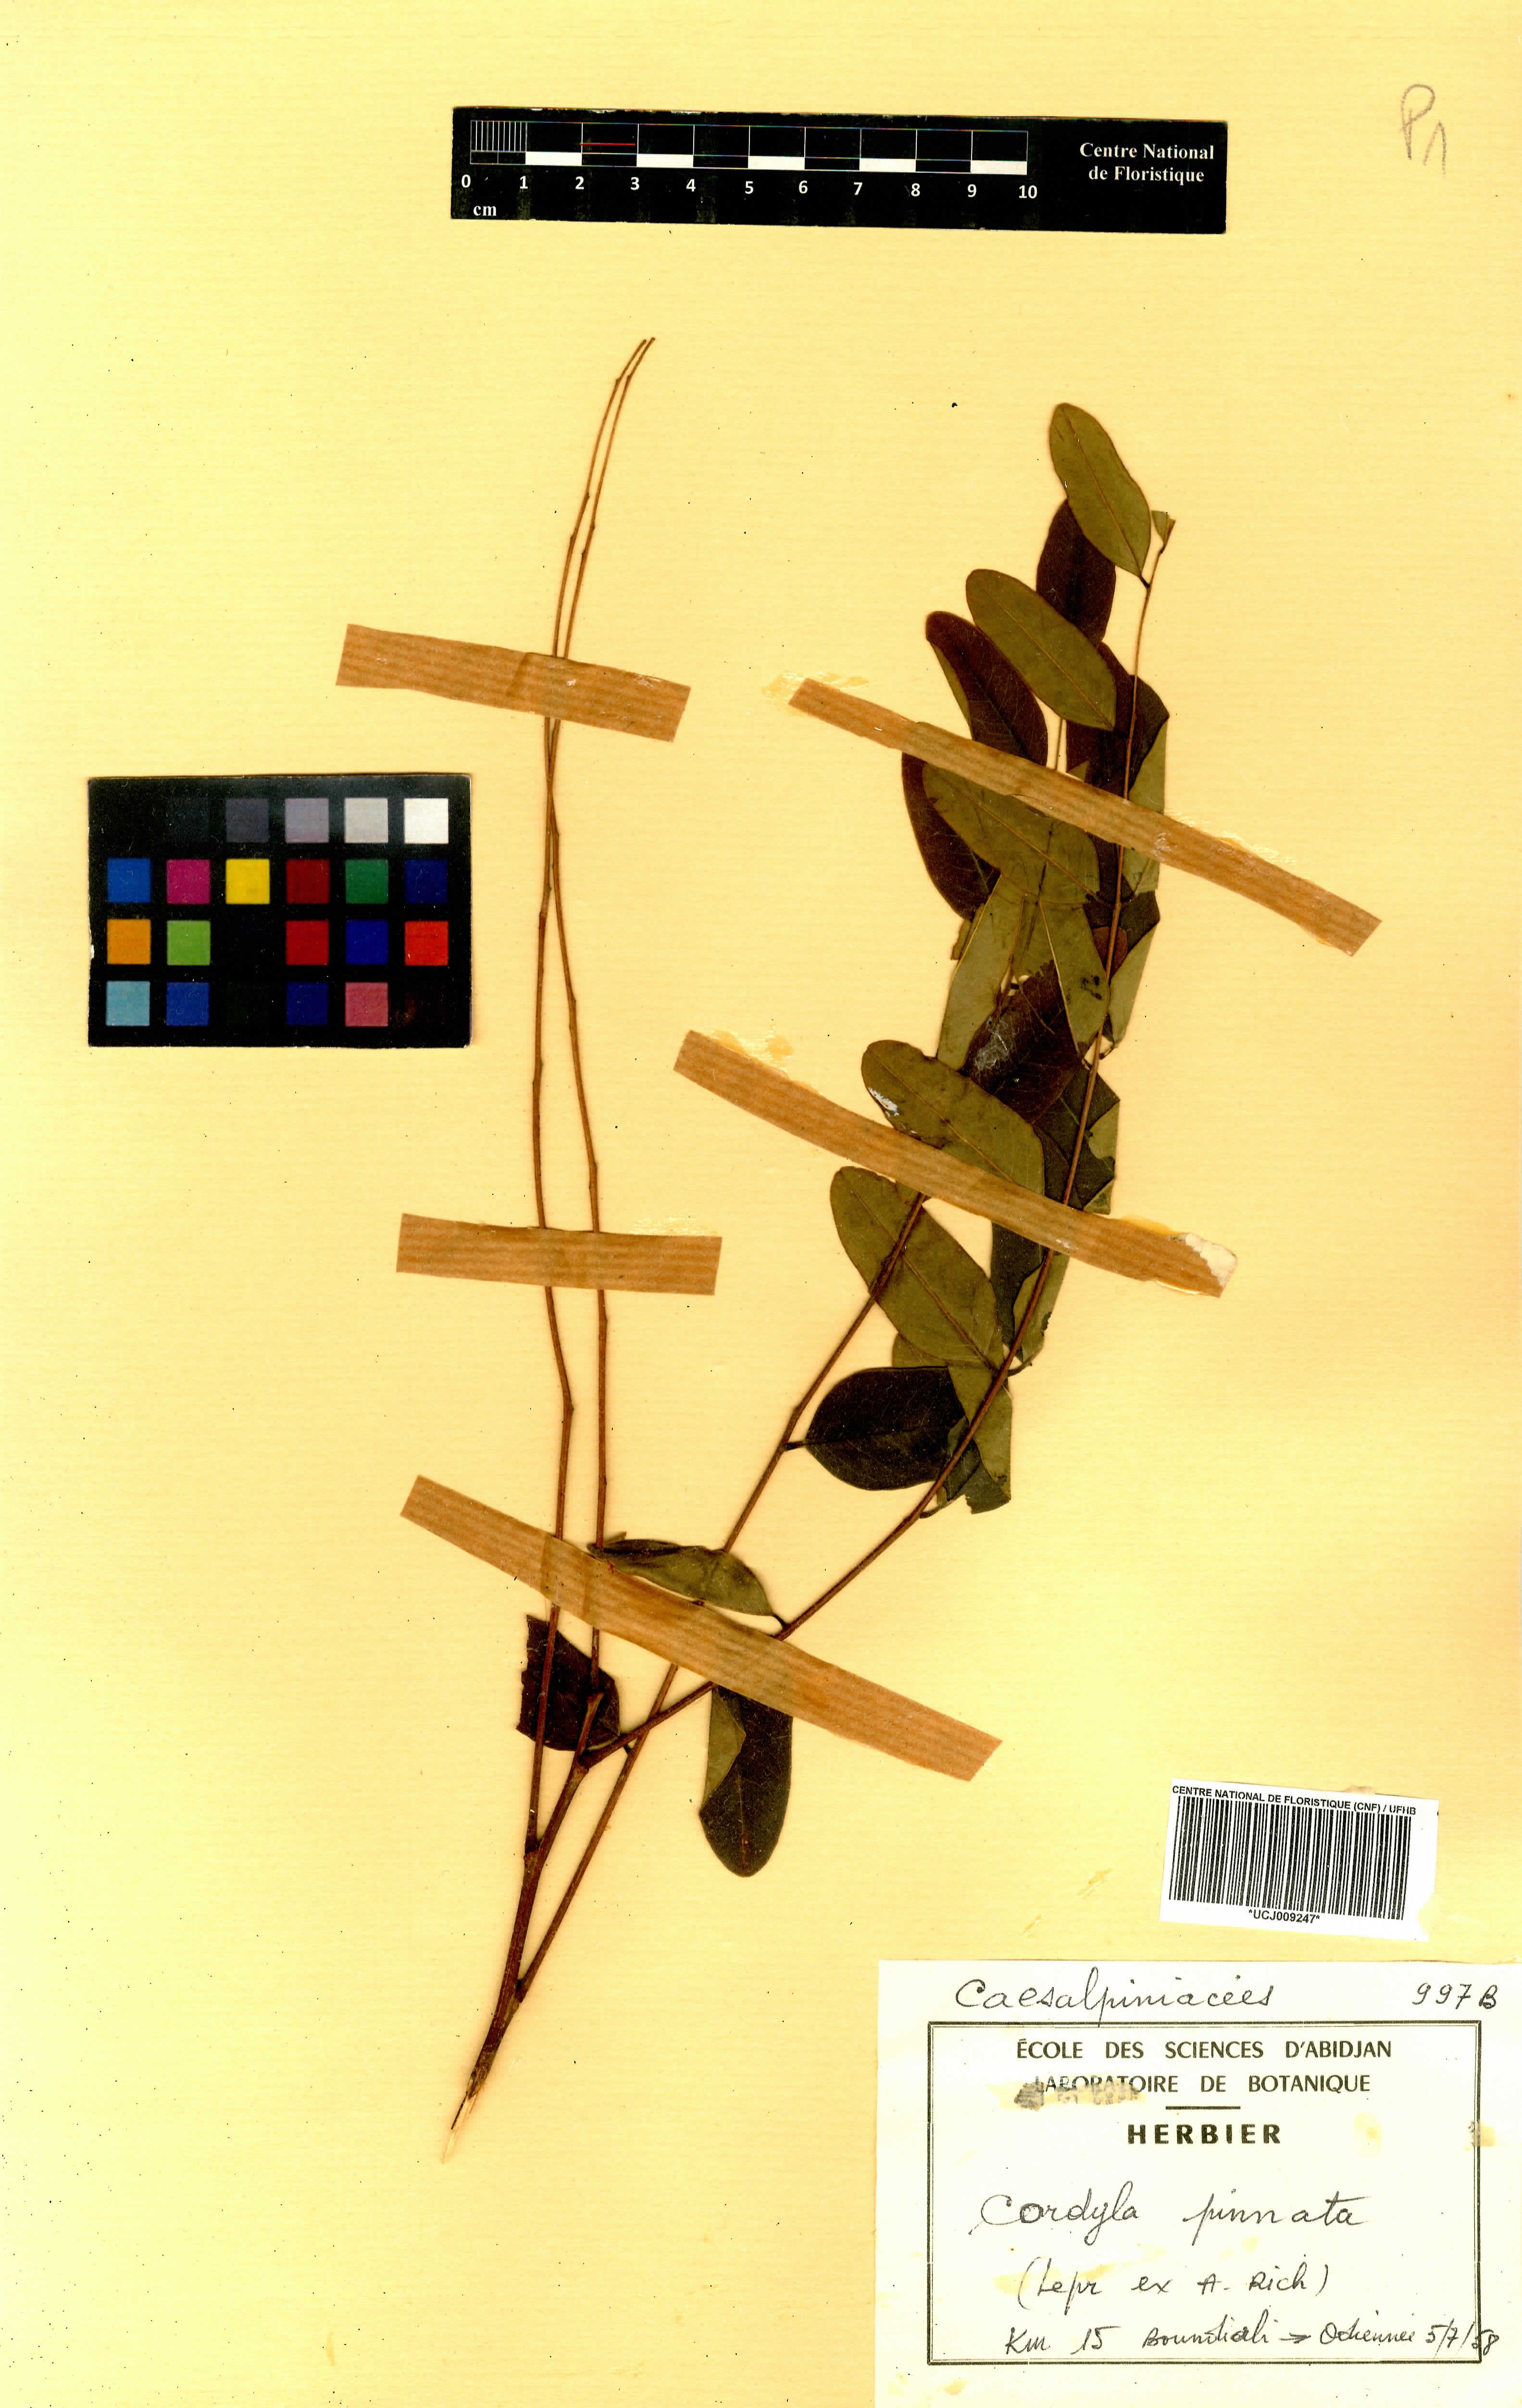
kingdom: Plantae
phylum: Tracheophyta
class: Magnoliopsida
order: Fabales
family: Fabaceae
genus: Cordyla
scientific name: Cordyla pinnata
